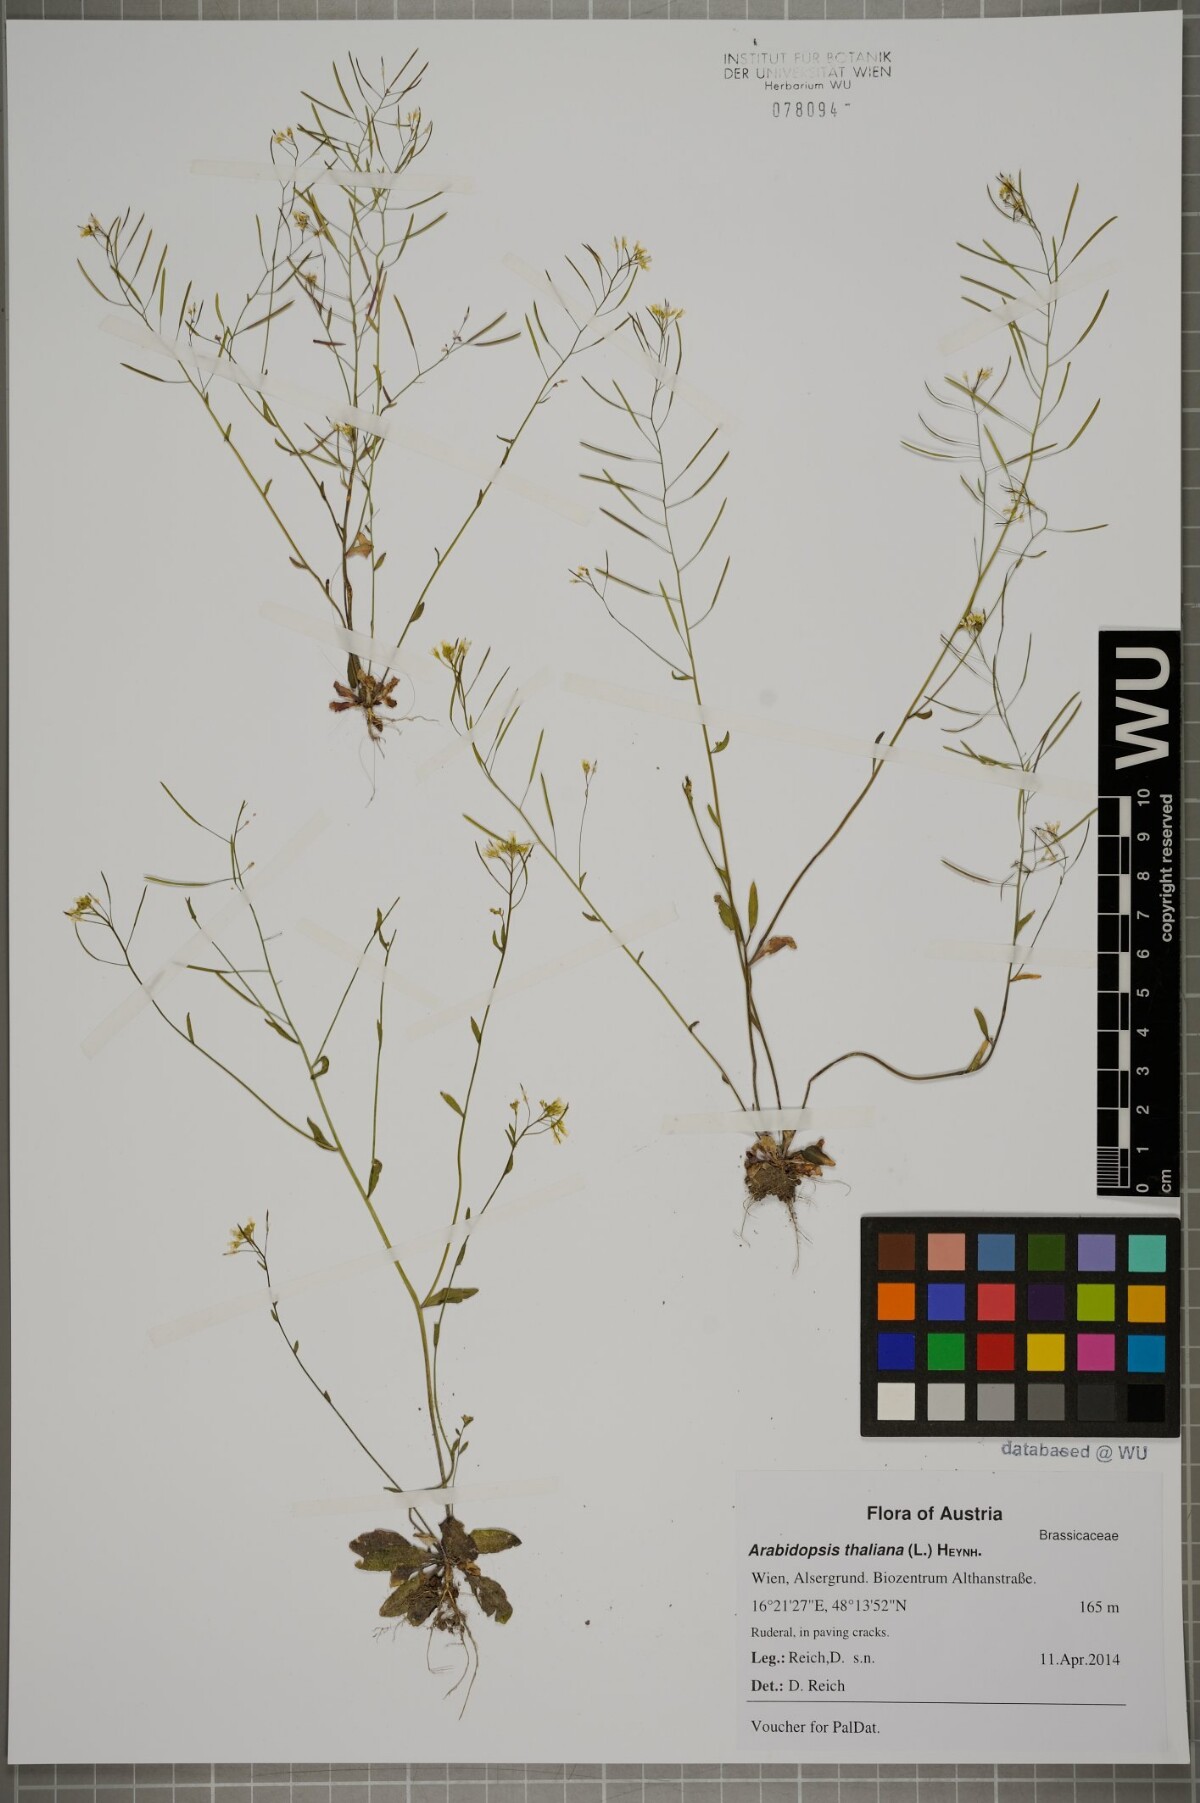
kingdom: Plantae
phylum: Tracheophyta
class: Magnoliopsida
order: Brassicales
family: Brassicaceae
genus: Arabidopsis
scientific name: Arabidopsis thaliana
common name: Thale cress
